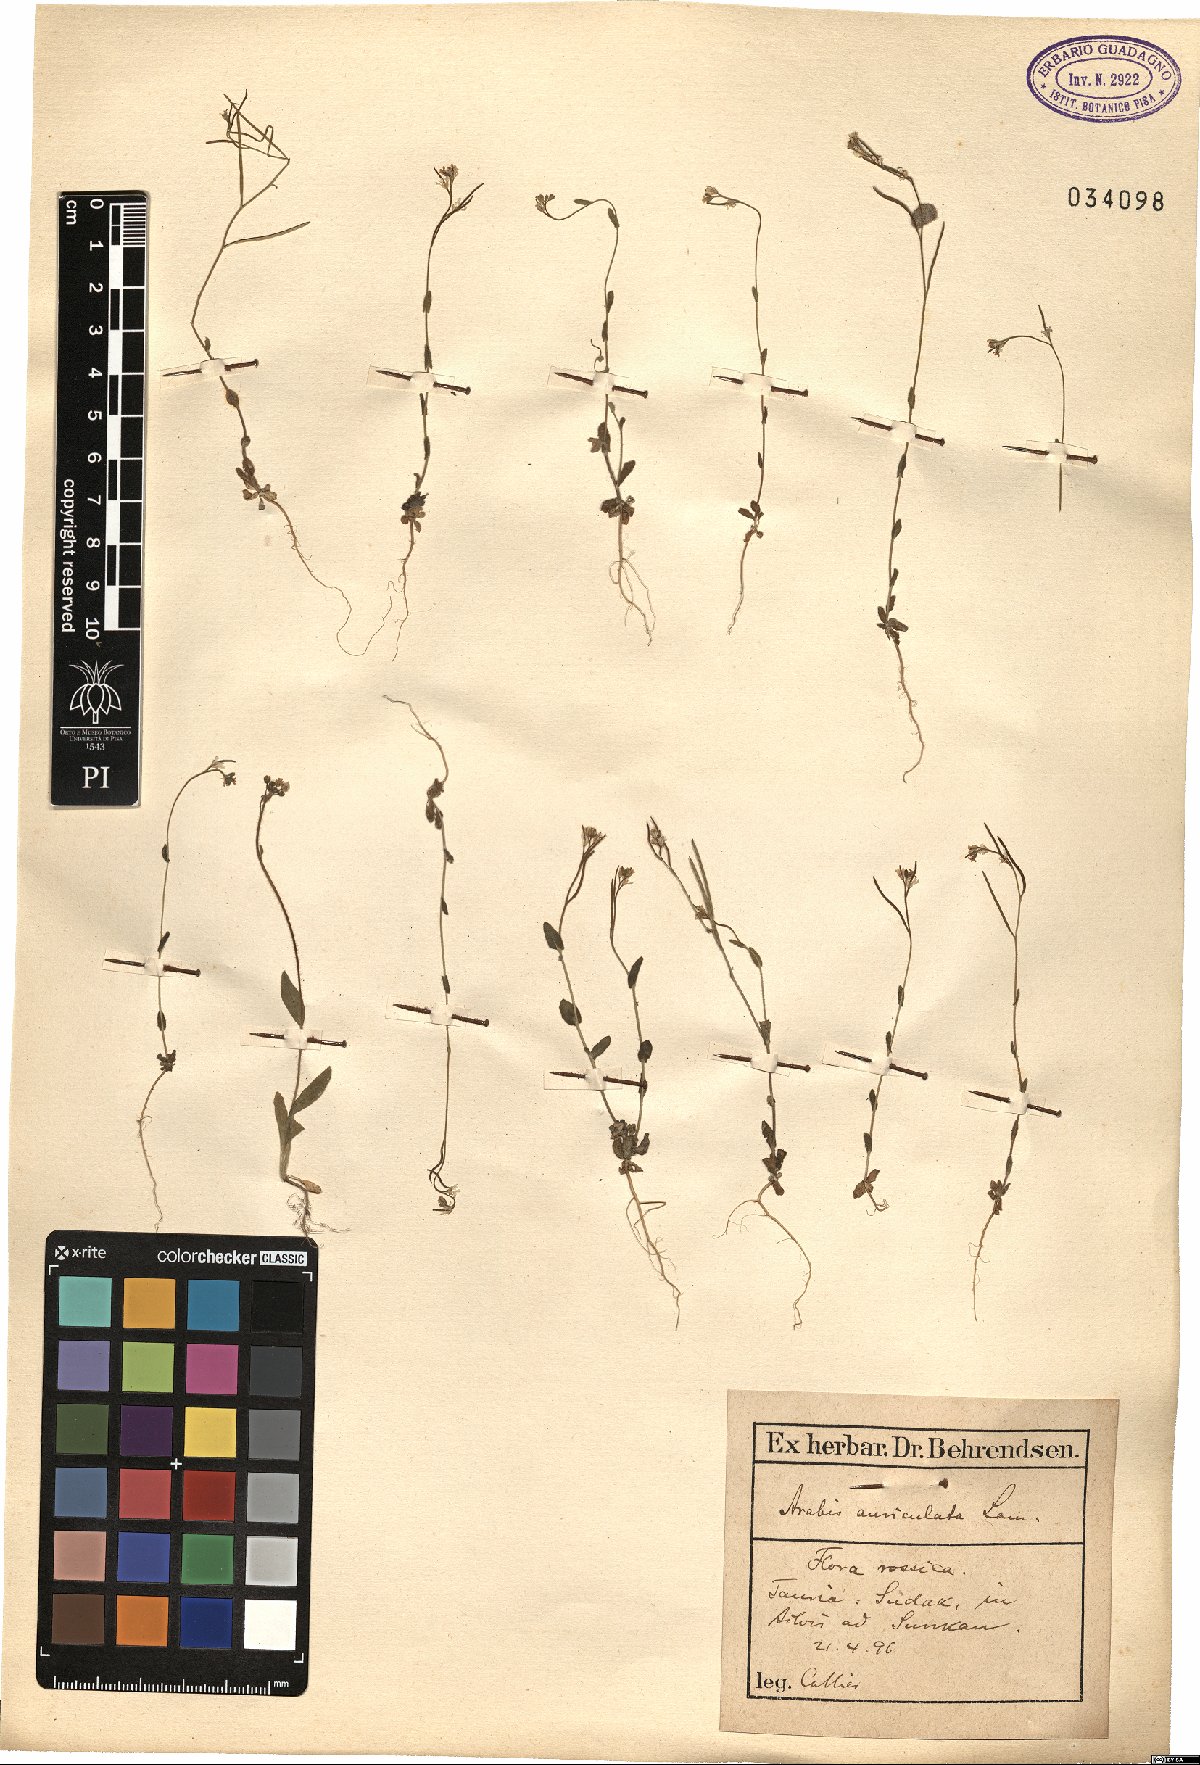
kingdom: Plantae
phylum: Tracheophyta
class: Magnoliopsida
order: Brassicales
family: Brassicaceae
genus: Arabis
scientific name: Arabis auriculata
